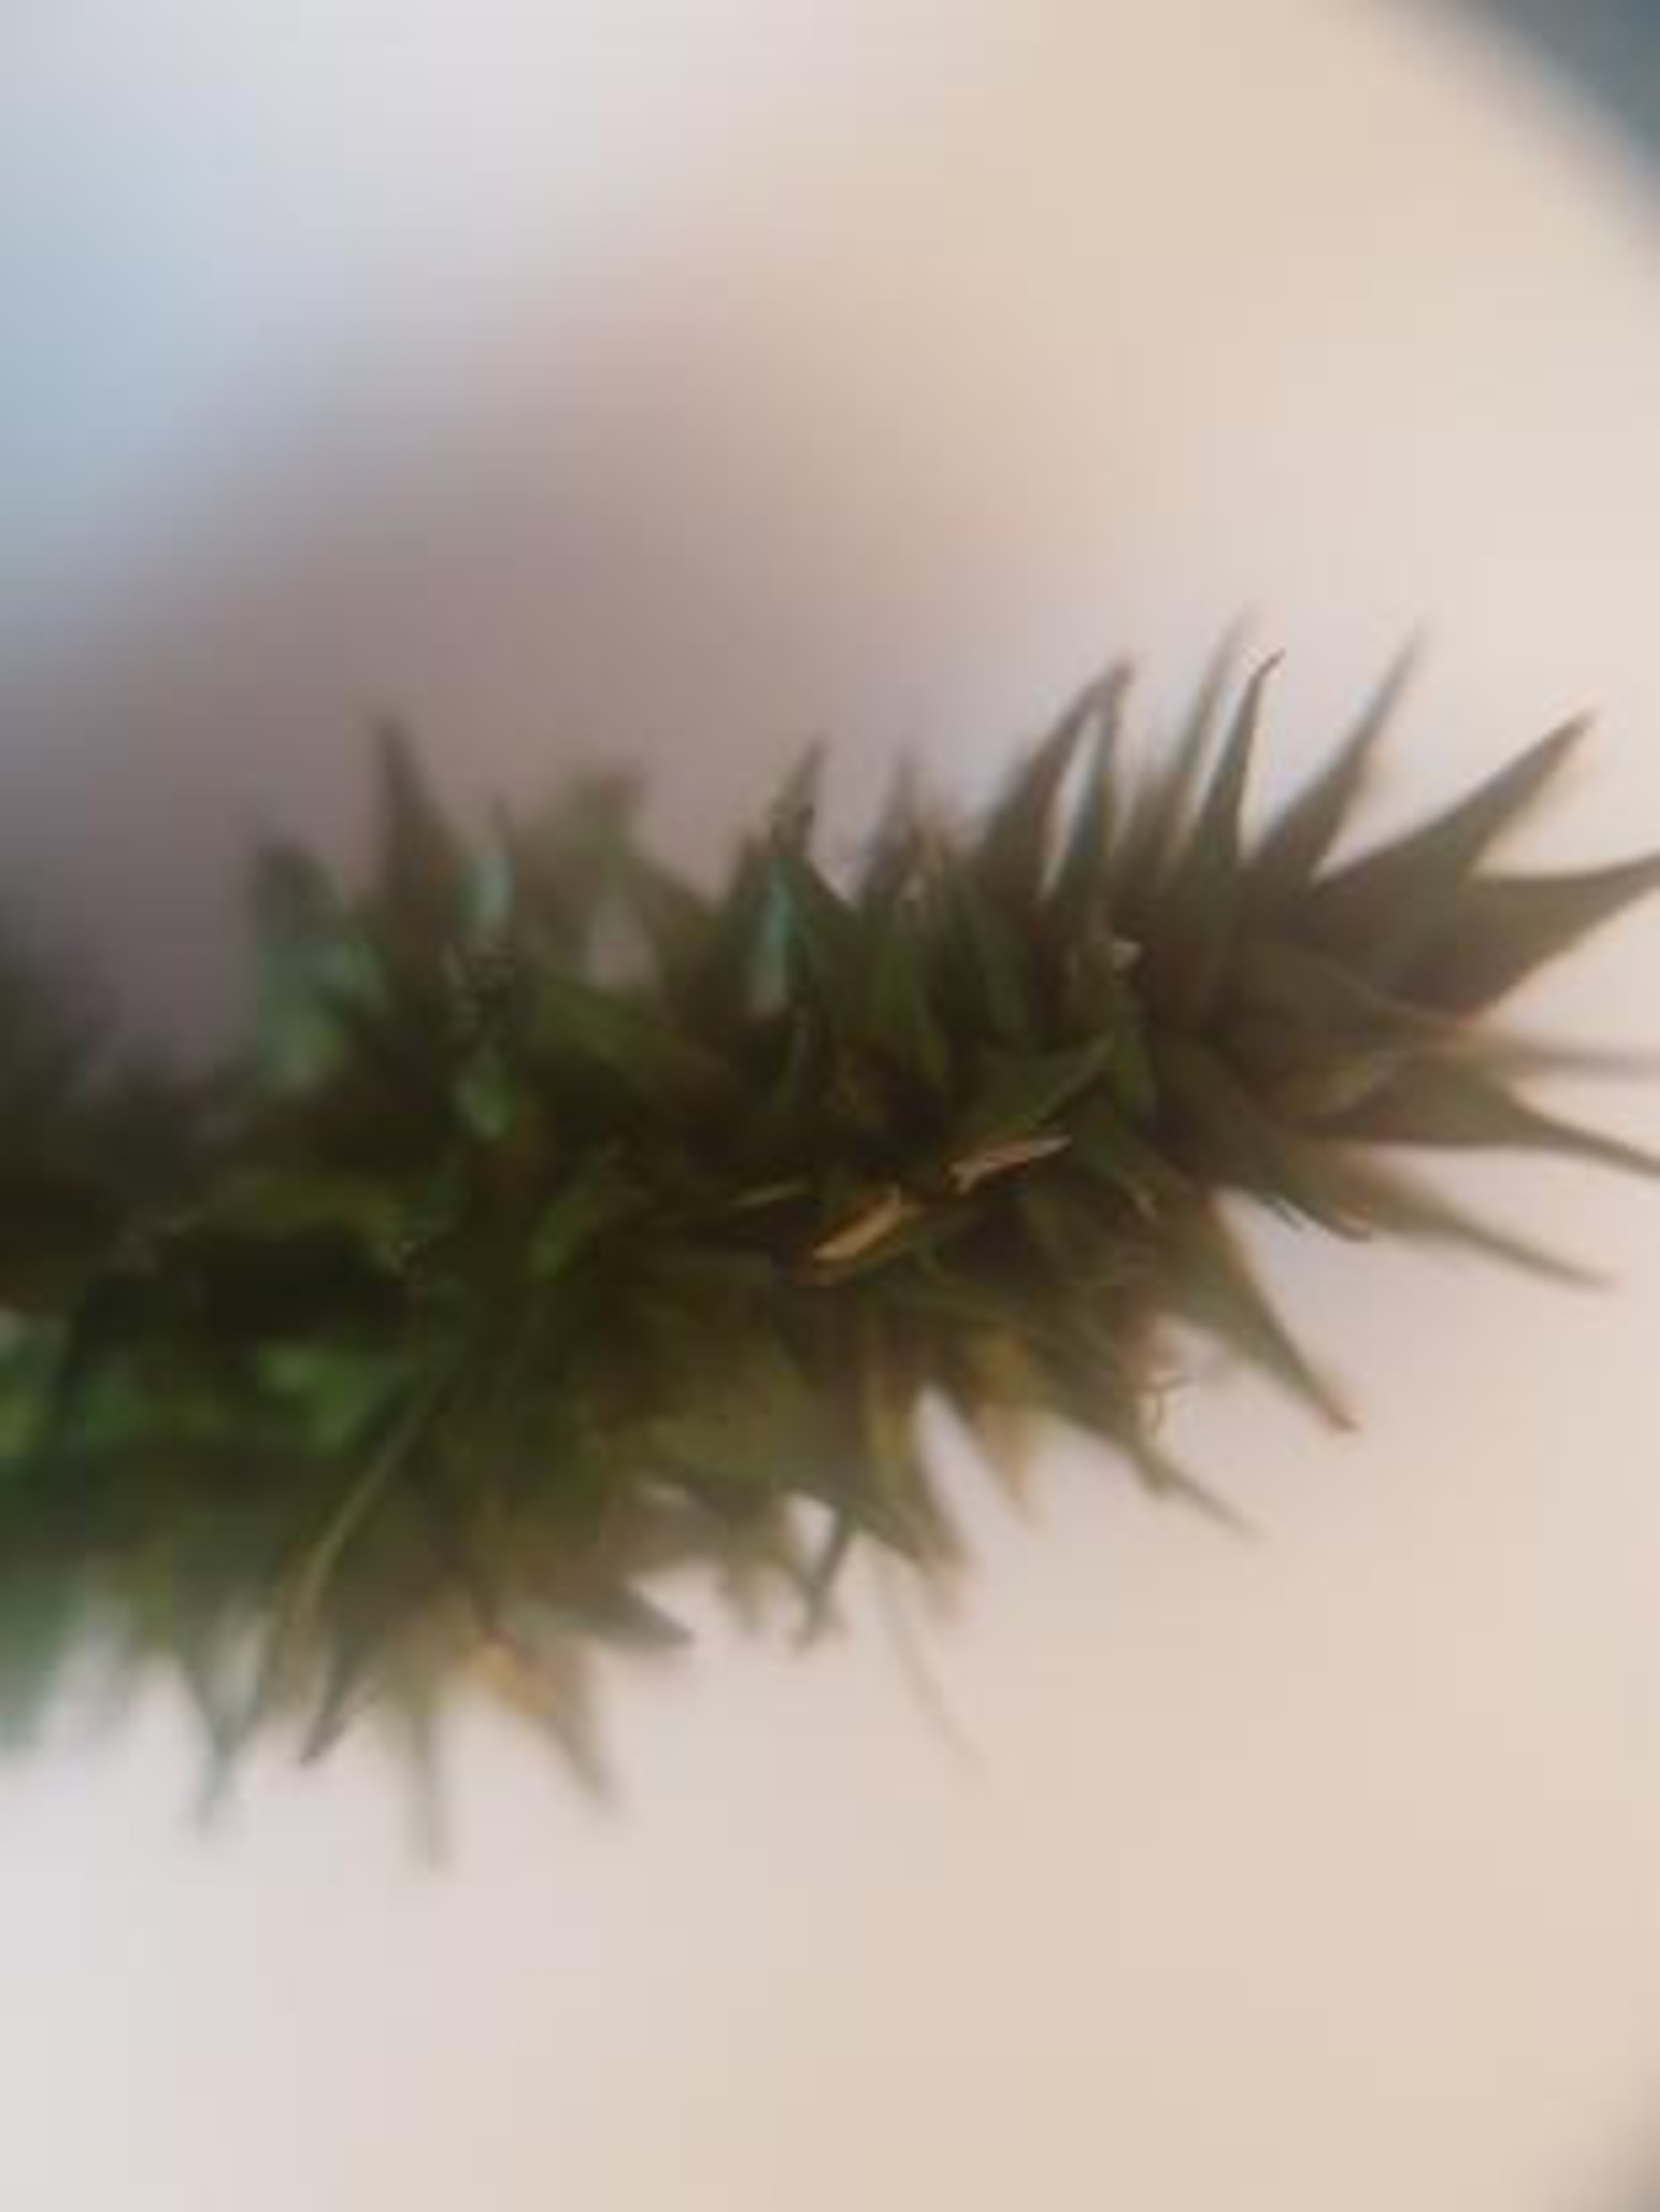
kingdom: Plantae
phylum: Tracheophyta
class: Liliopsida
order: Poales
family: Cyperaceae
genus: Carex
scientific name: Carex otrubae
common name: Sylt-star
